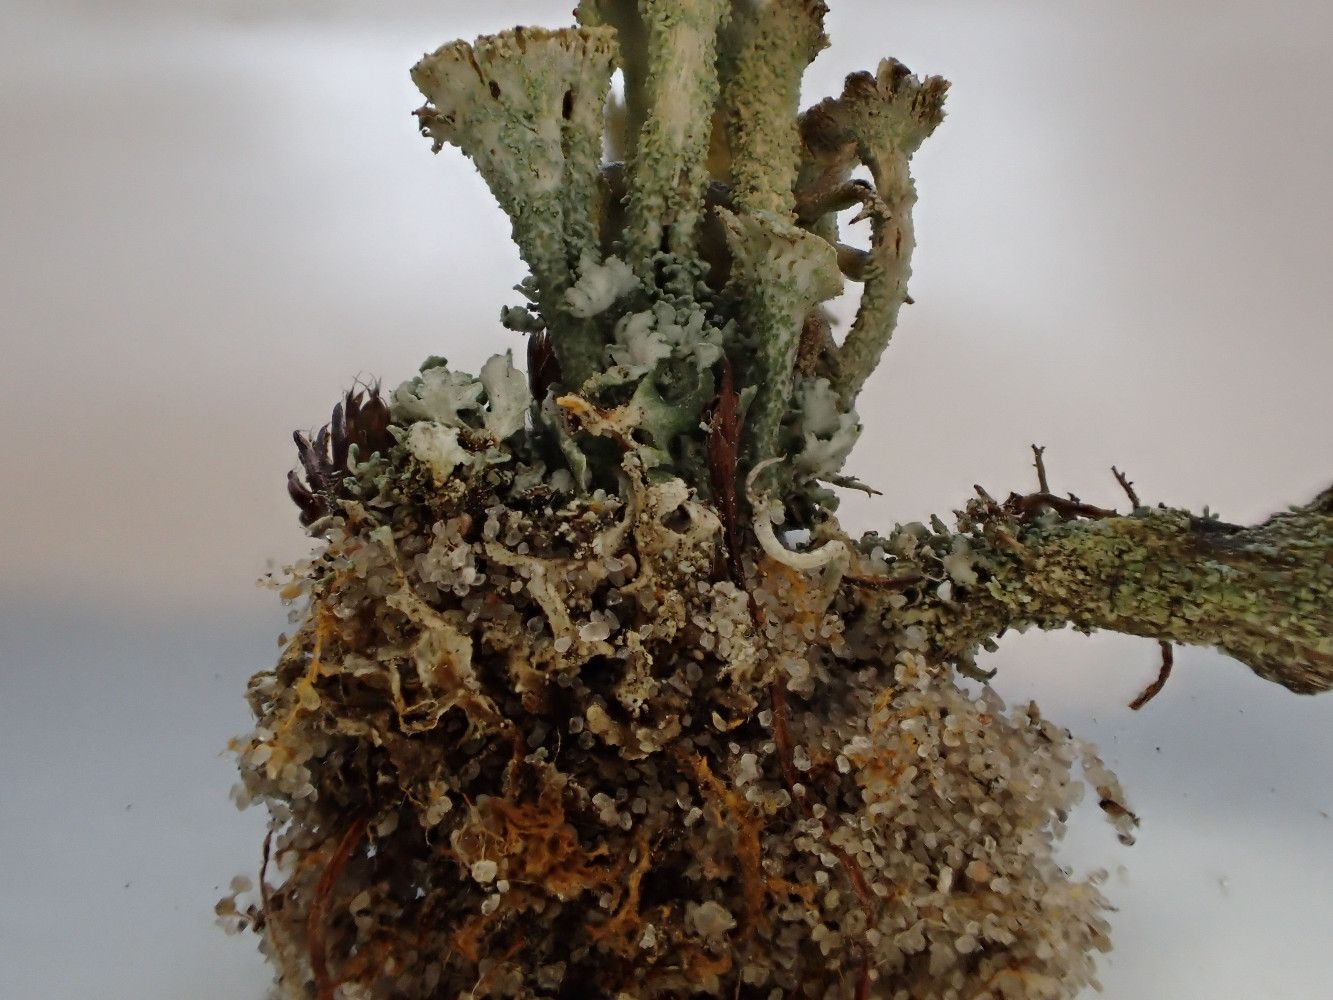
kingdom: Fungi
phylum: Ascomycota
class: Lecanoromycetes
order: Lecanorales
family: Cladoniaceae
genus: Cladonia
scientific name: Cladonia diversa
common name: rød bægerlav
